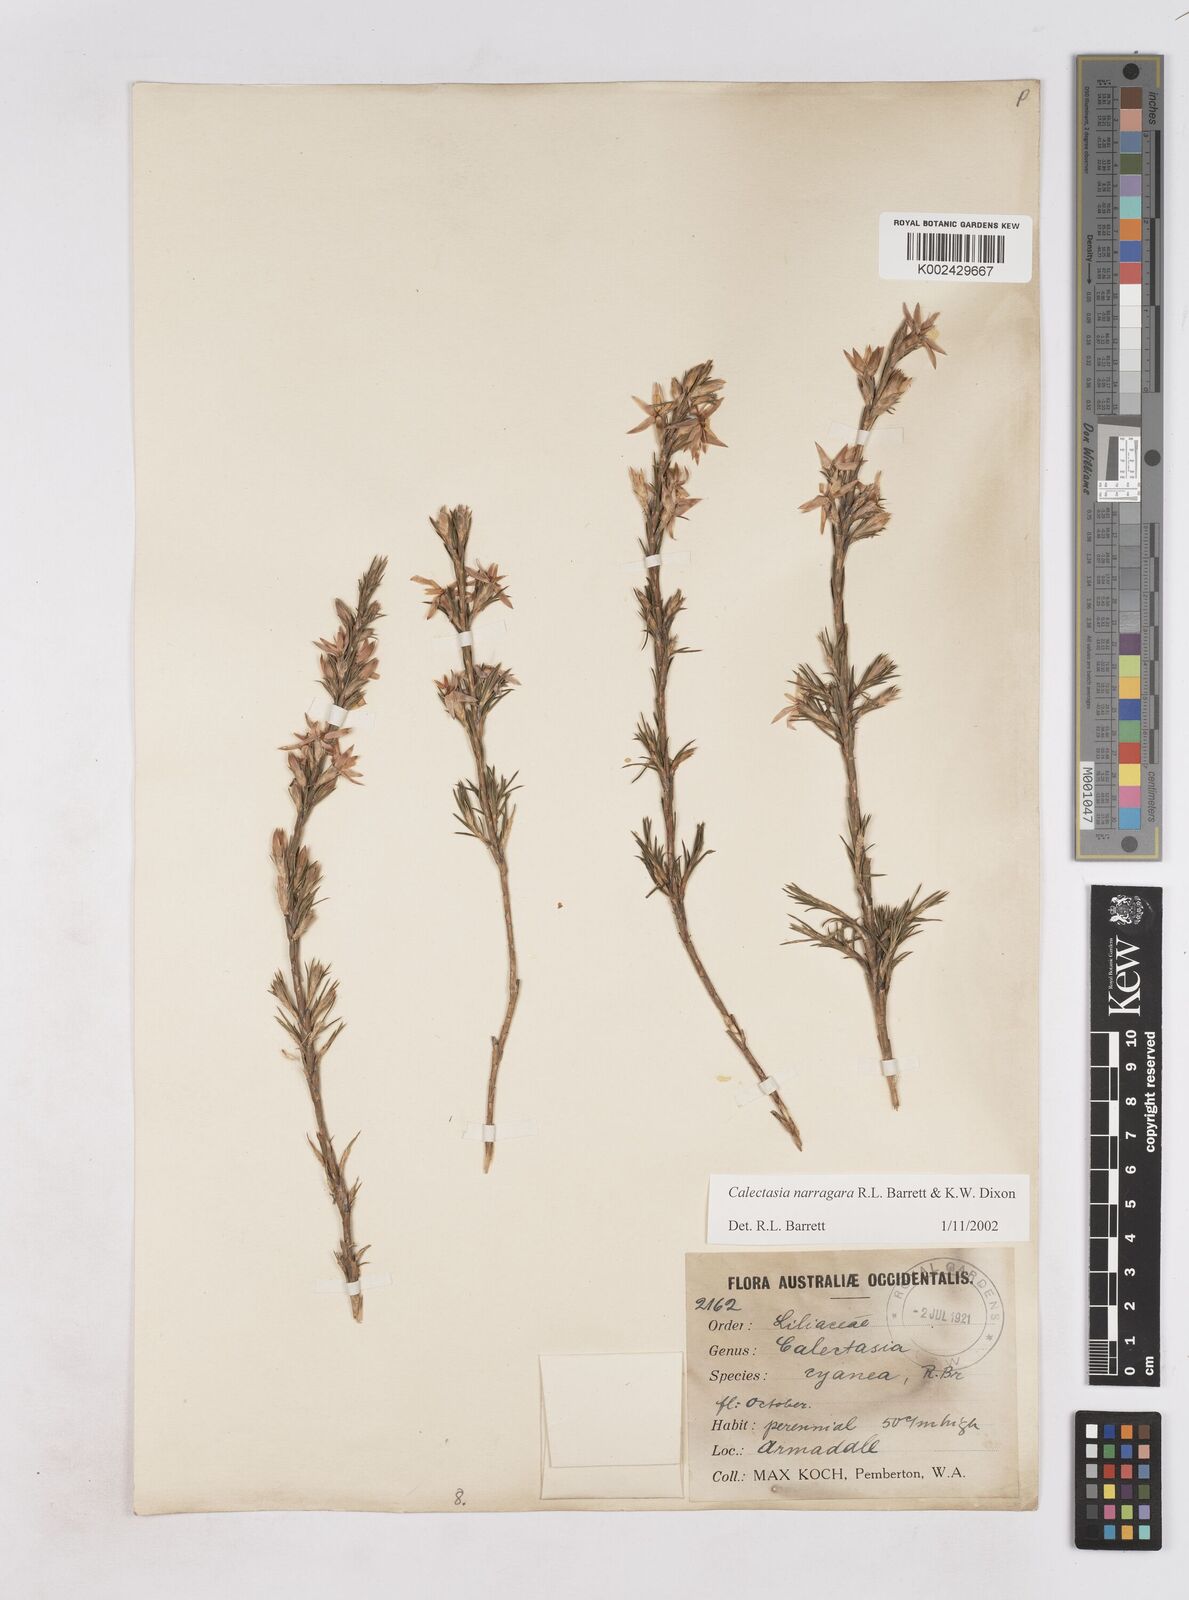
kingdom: Plantae
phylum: Tracheophyta
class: Liliopsida
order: Arecales
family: Dasypogonaceae
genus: Calectasia
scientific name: Calectasia narragara
